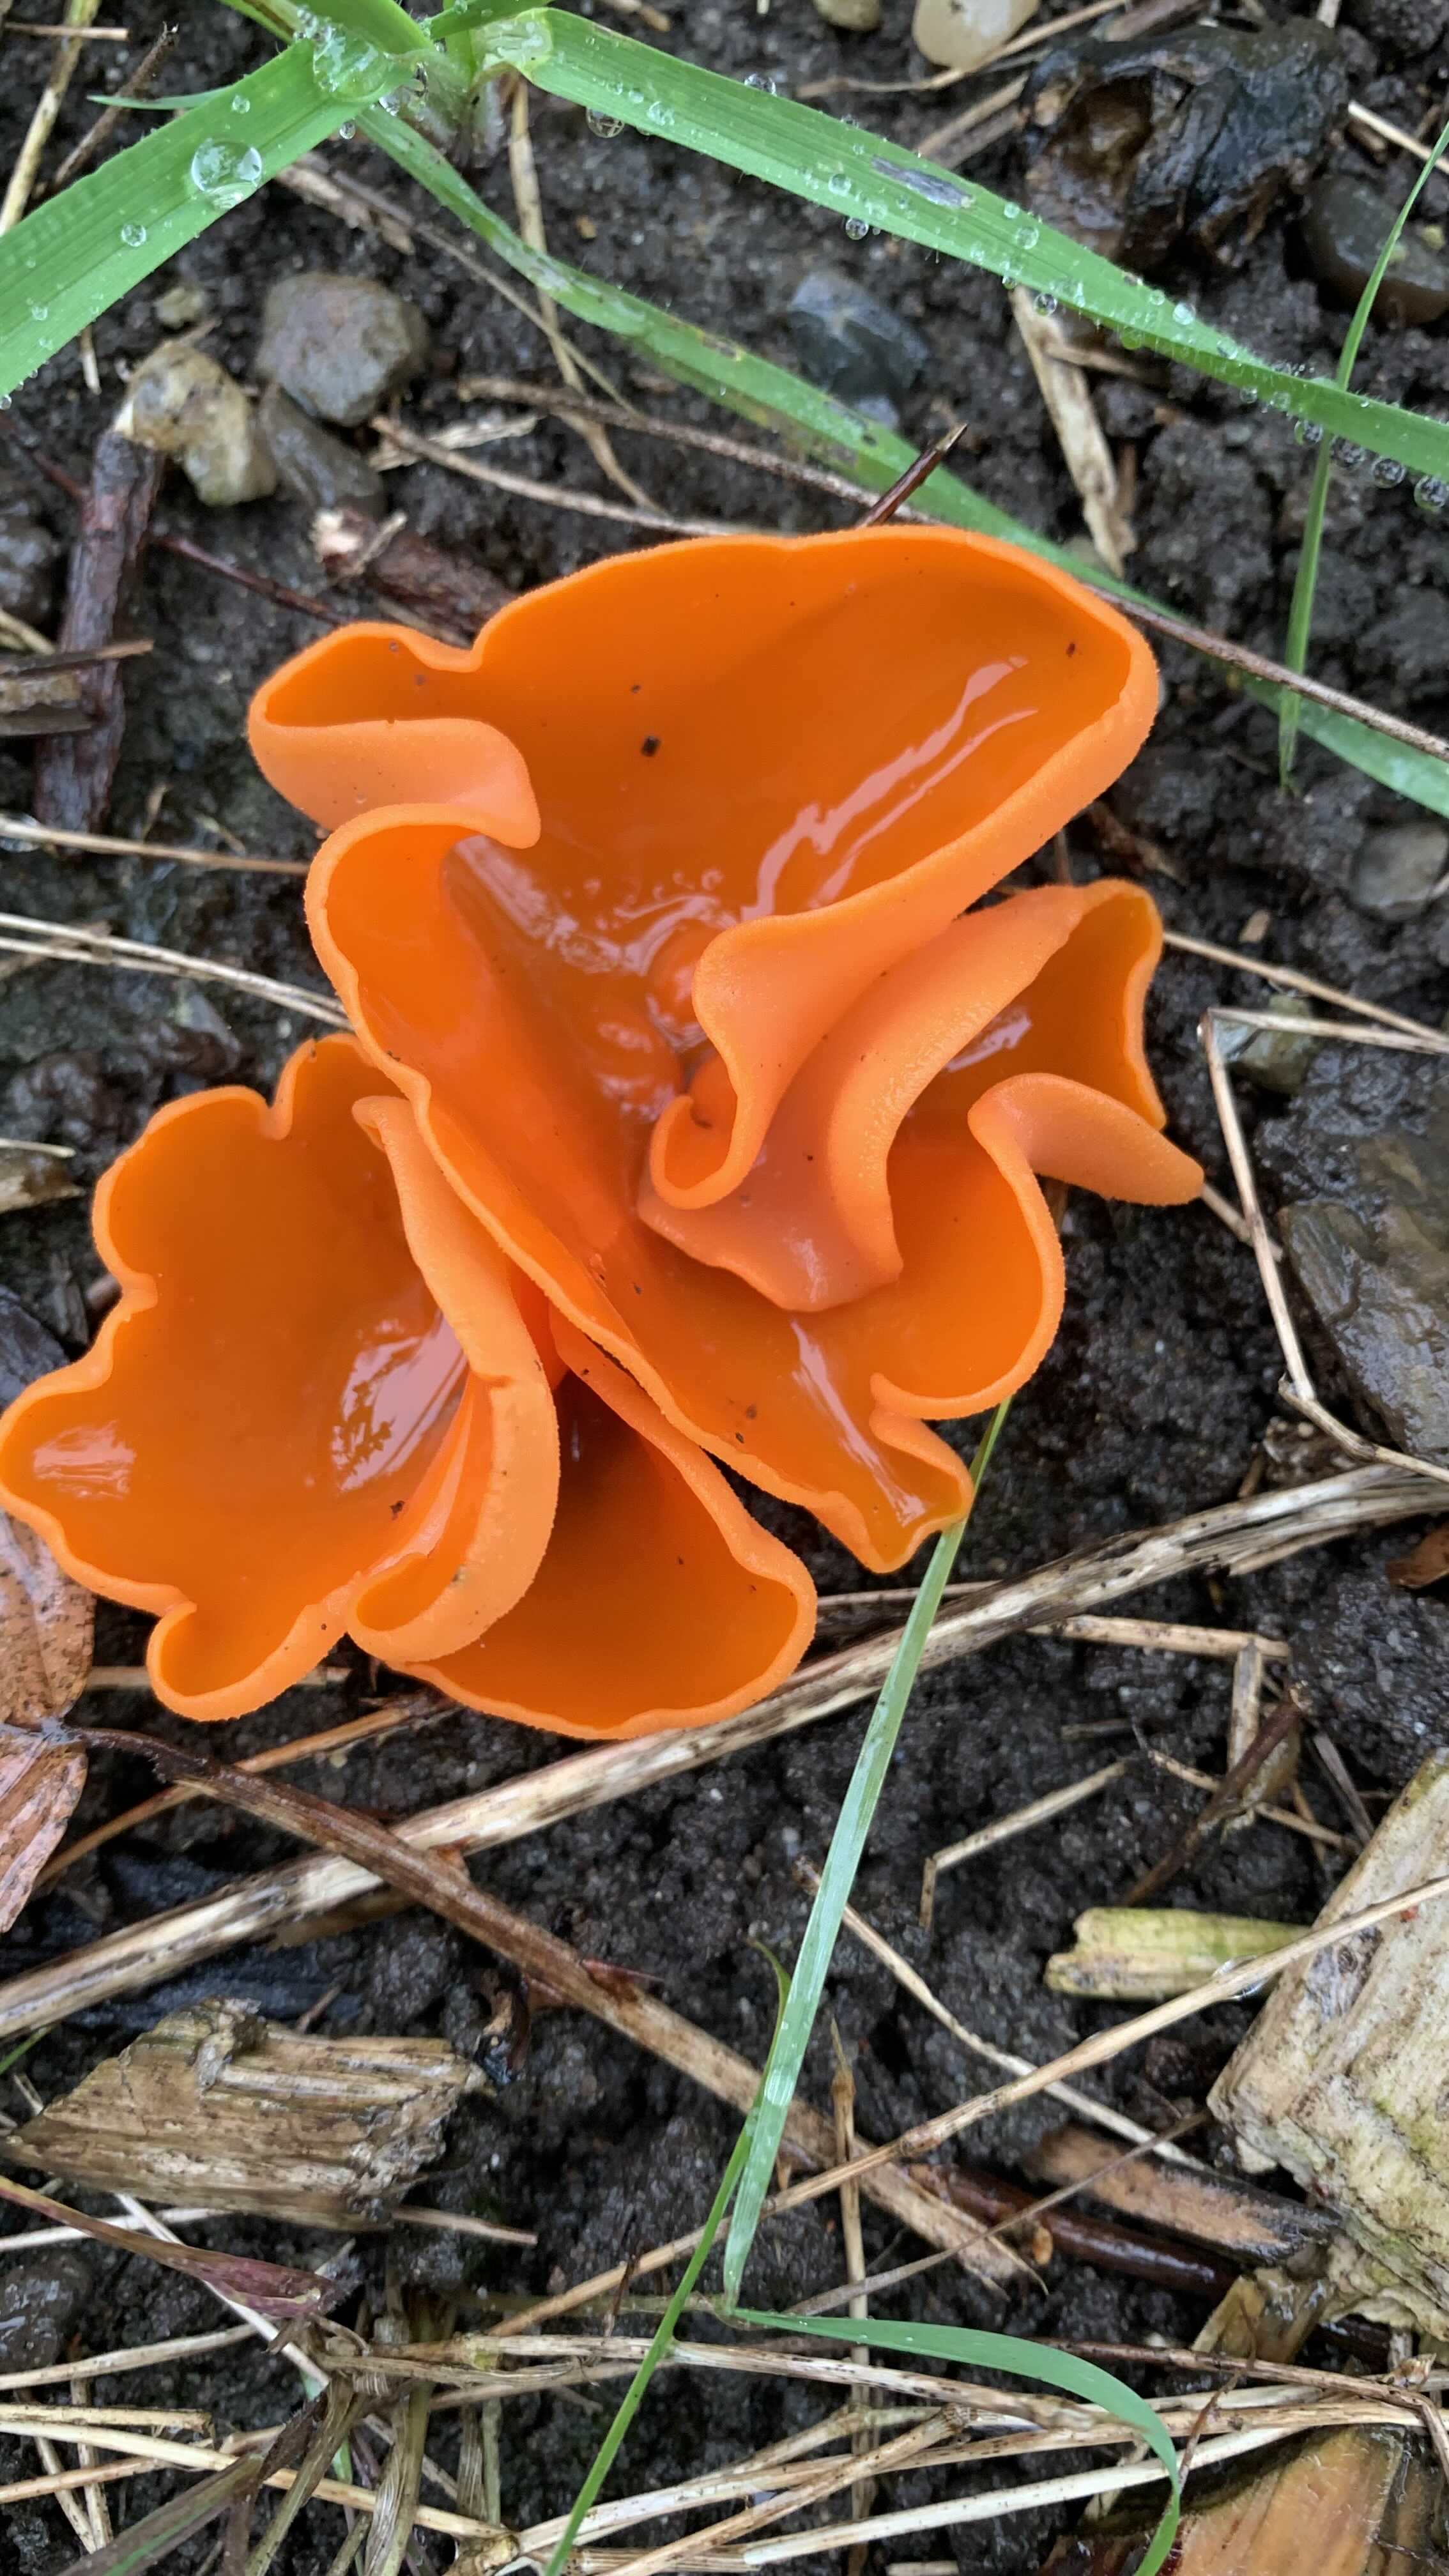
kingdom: Fungi
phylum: Ascomycota
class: Pezizomycetes
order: Pezizales
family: Pyronemataceae
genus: Aleuria
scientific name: Aleuria aurantia
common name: almindelig orangebæger
